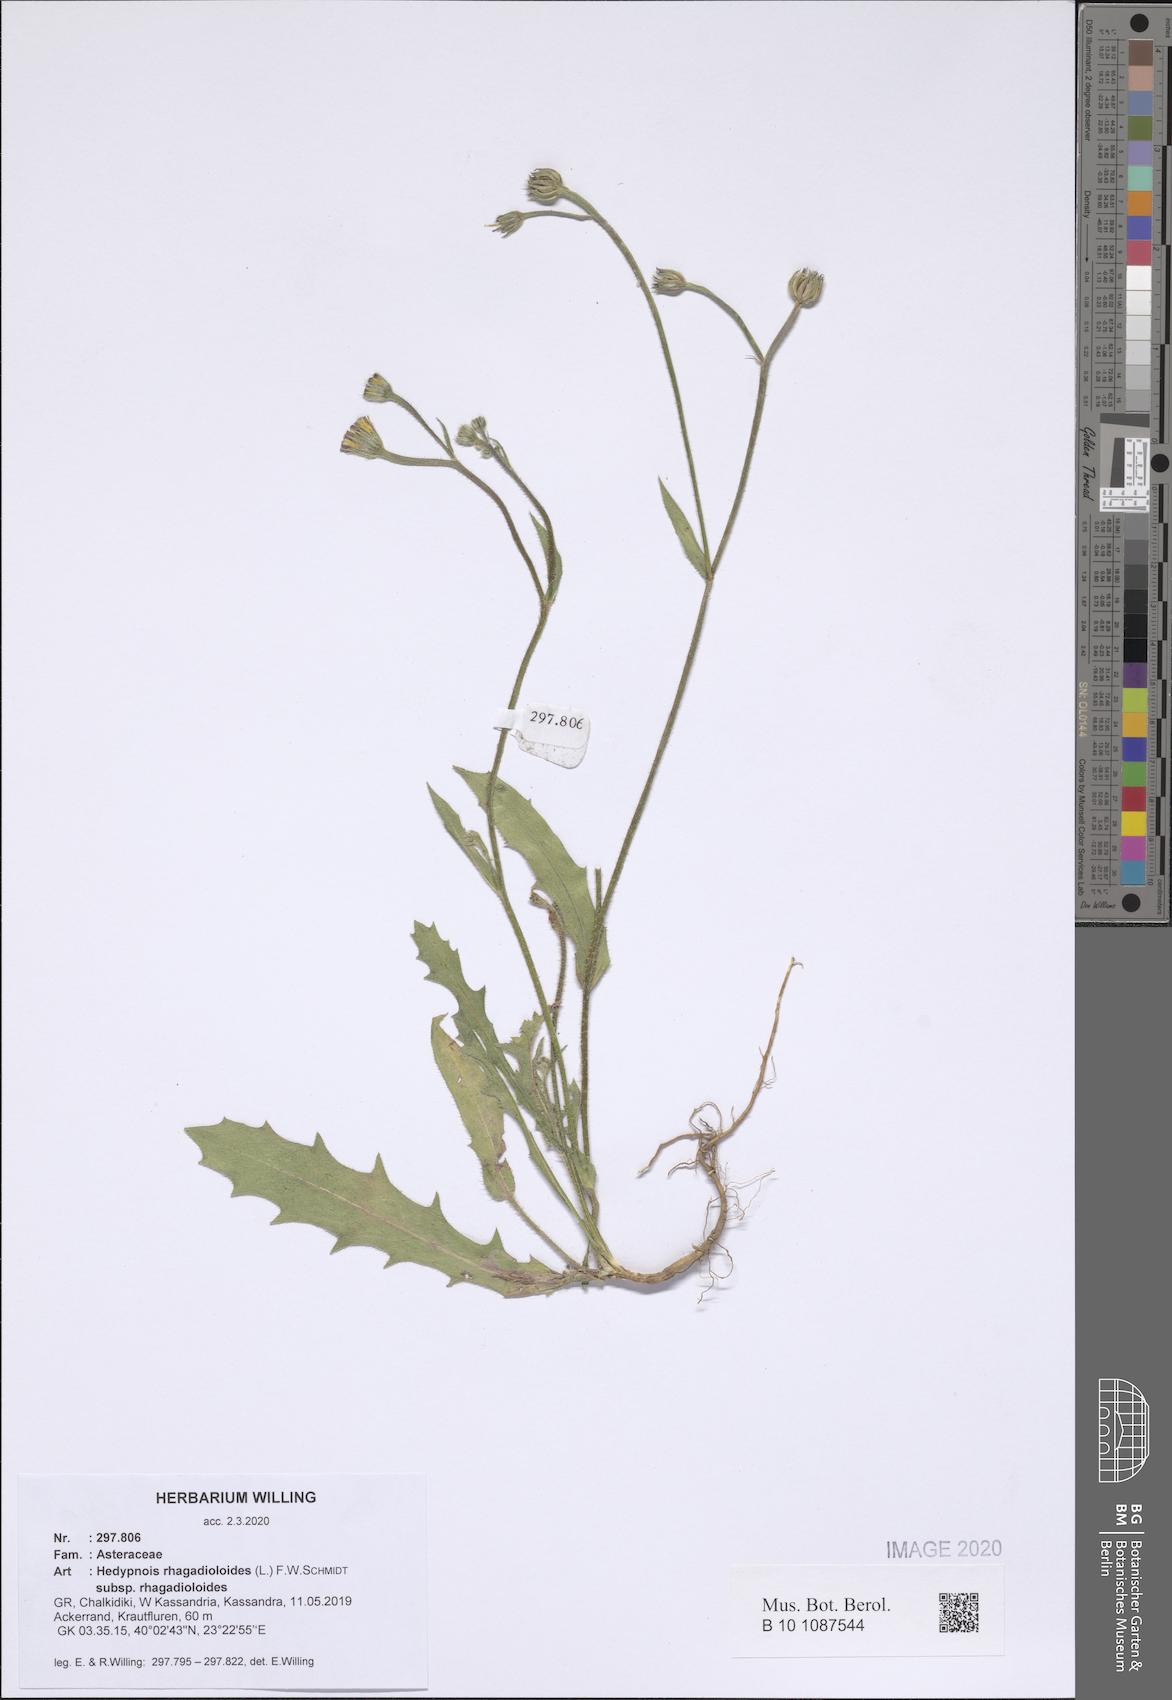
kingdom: Plantae
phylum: Tracheophyta
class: Magnoliopsida
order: Asterales
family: Asteraceae
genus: Hedypnois
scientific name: Hedypnois rhagadioloides
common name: Cretan weed
